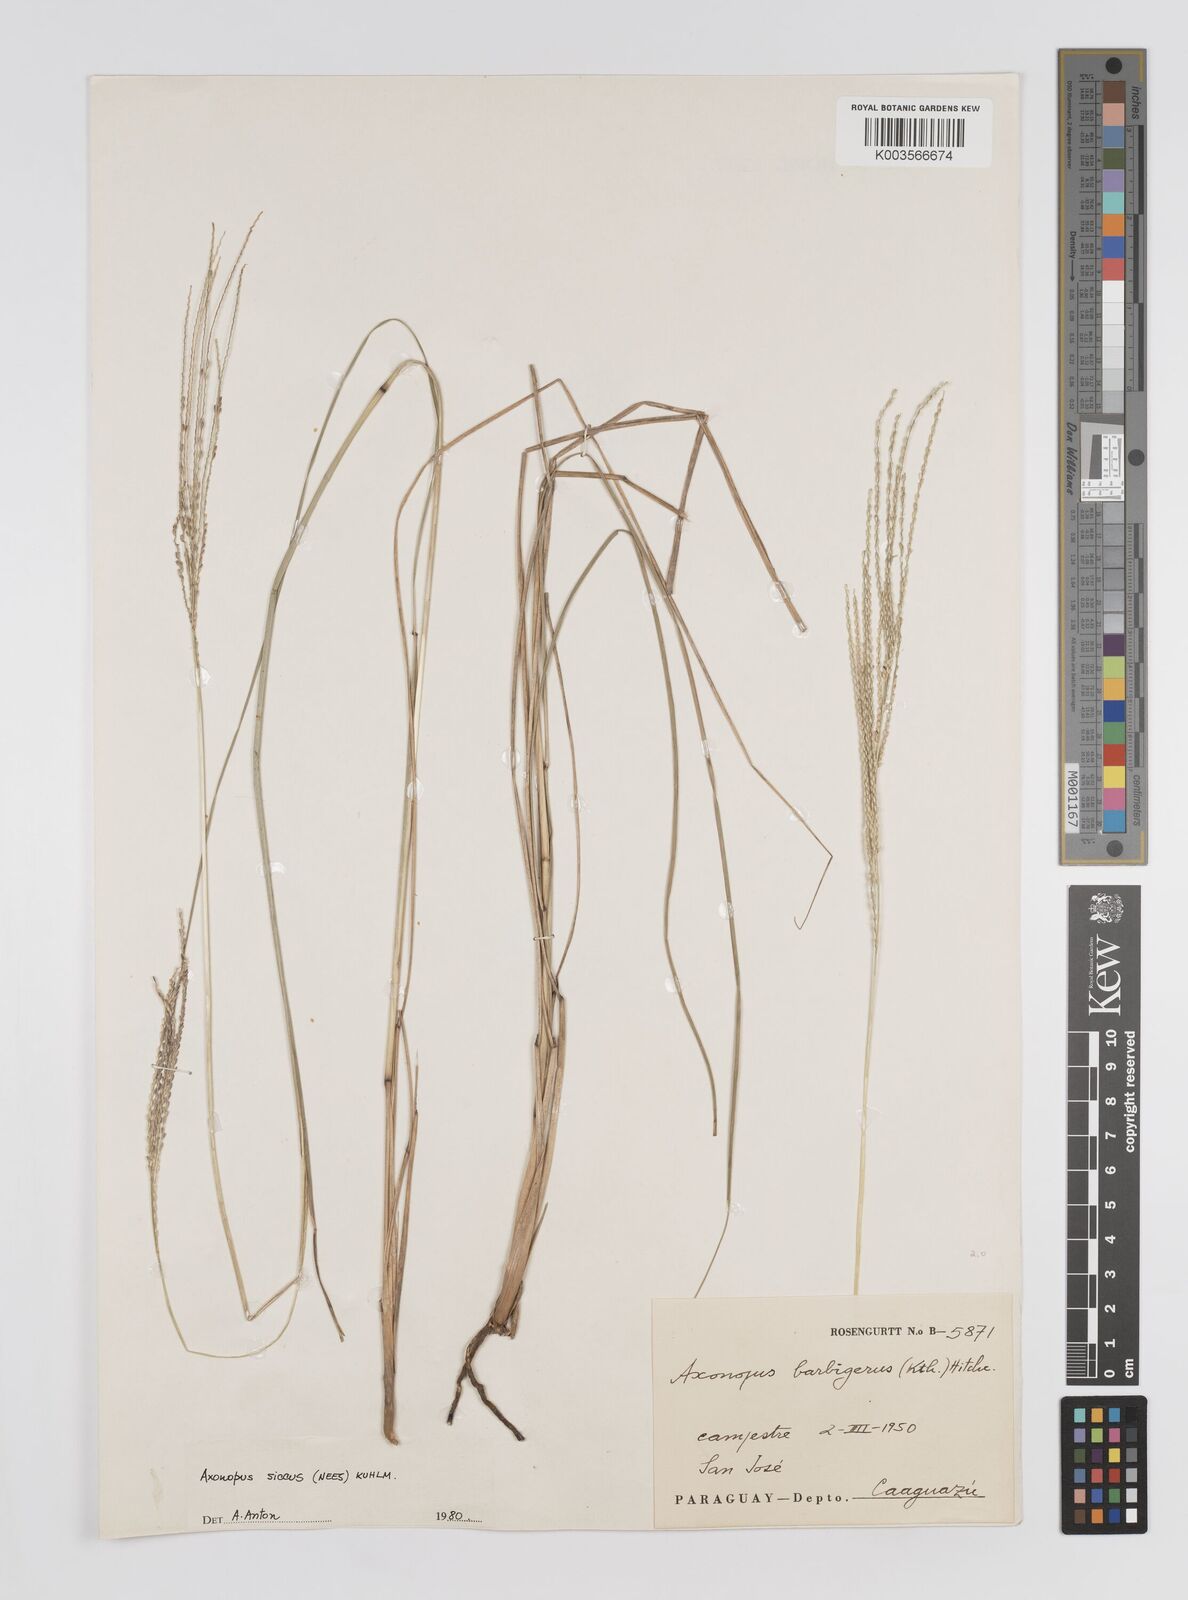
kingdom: Plantae
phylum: Tracheophyta
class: Liliopsida
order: Poales
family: Poaceae
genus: Axonopus
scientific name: Axonopus siccus
